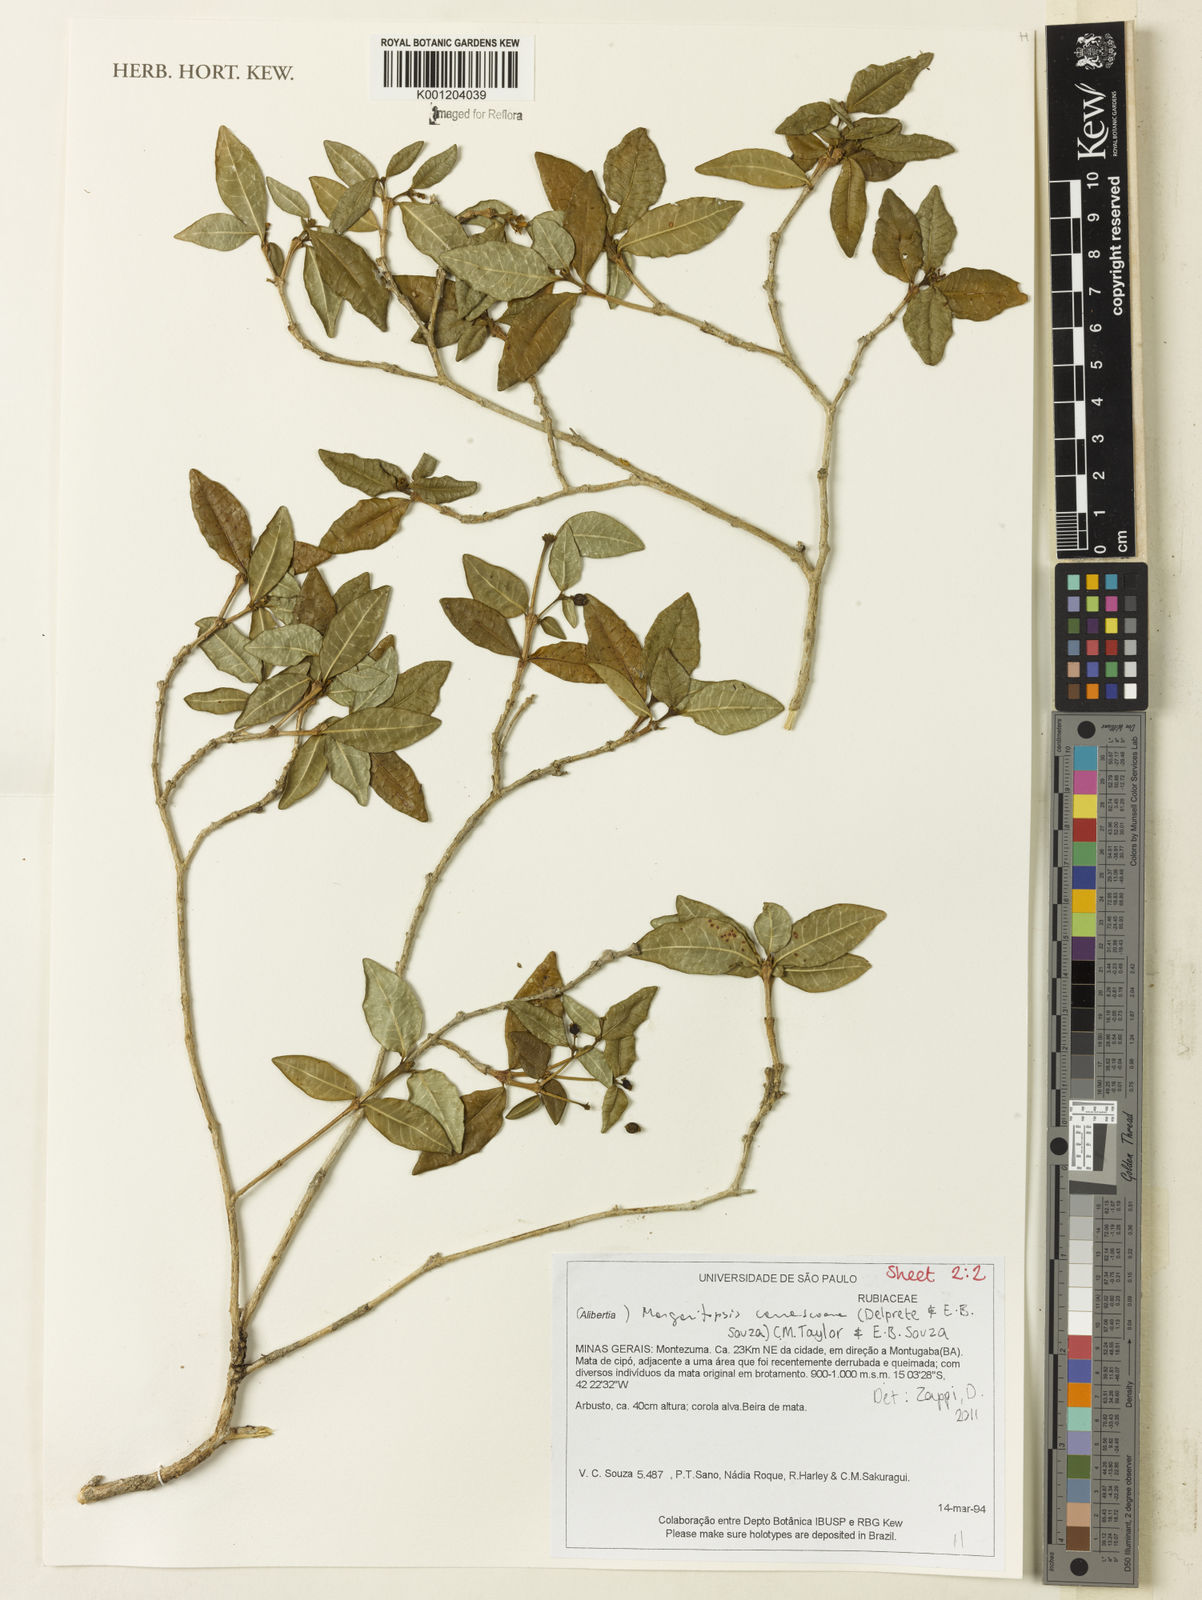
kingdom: Plantae
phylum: Tracheophyta
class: Magnoliopsida
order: Gentianales
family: Rubiaceae
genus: Eumachia
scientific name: Eumachia depauperata
